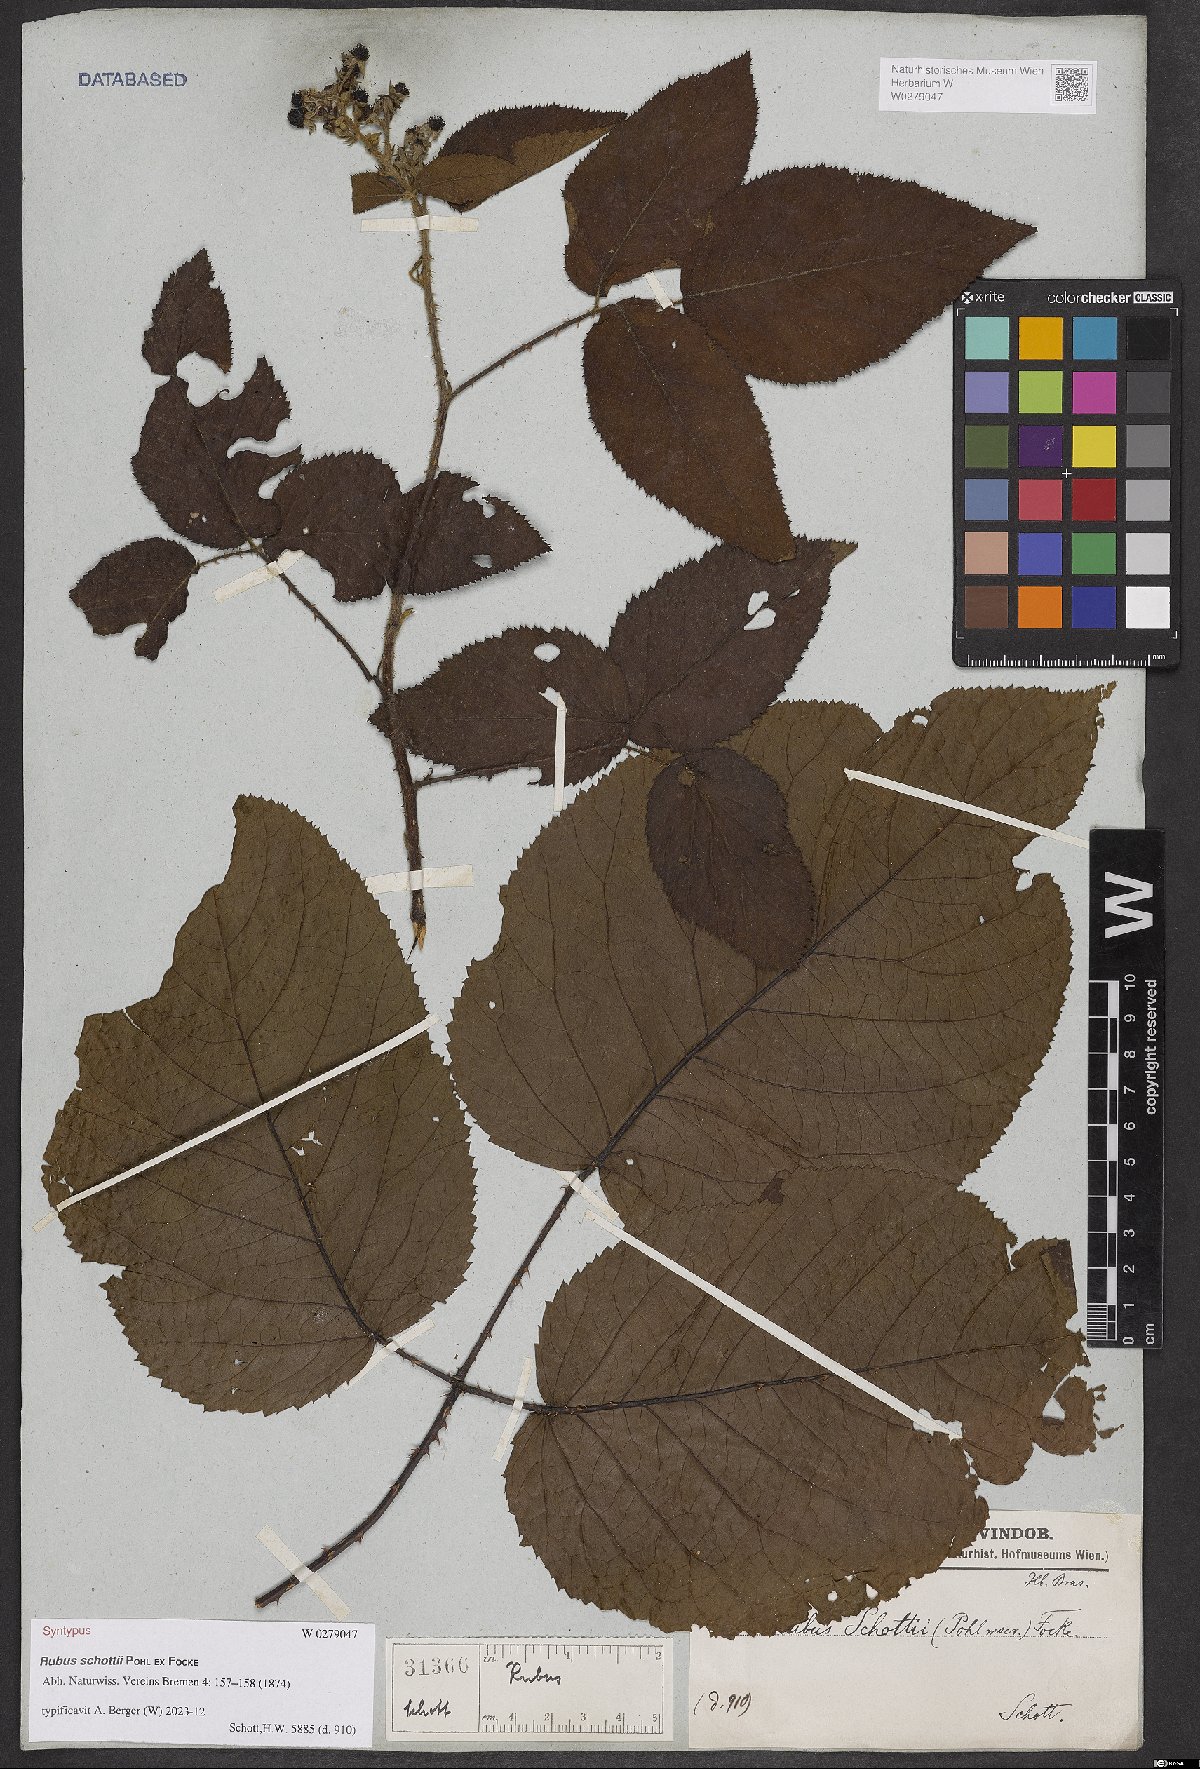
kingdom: Plantae
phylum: Tracheophyta
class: Magnoliopsida
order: Rosales
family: Rosaceae
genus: Rubus
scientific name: Rubus schottii
